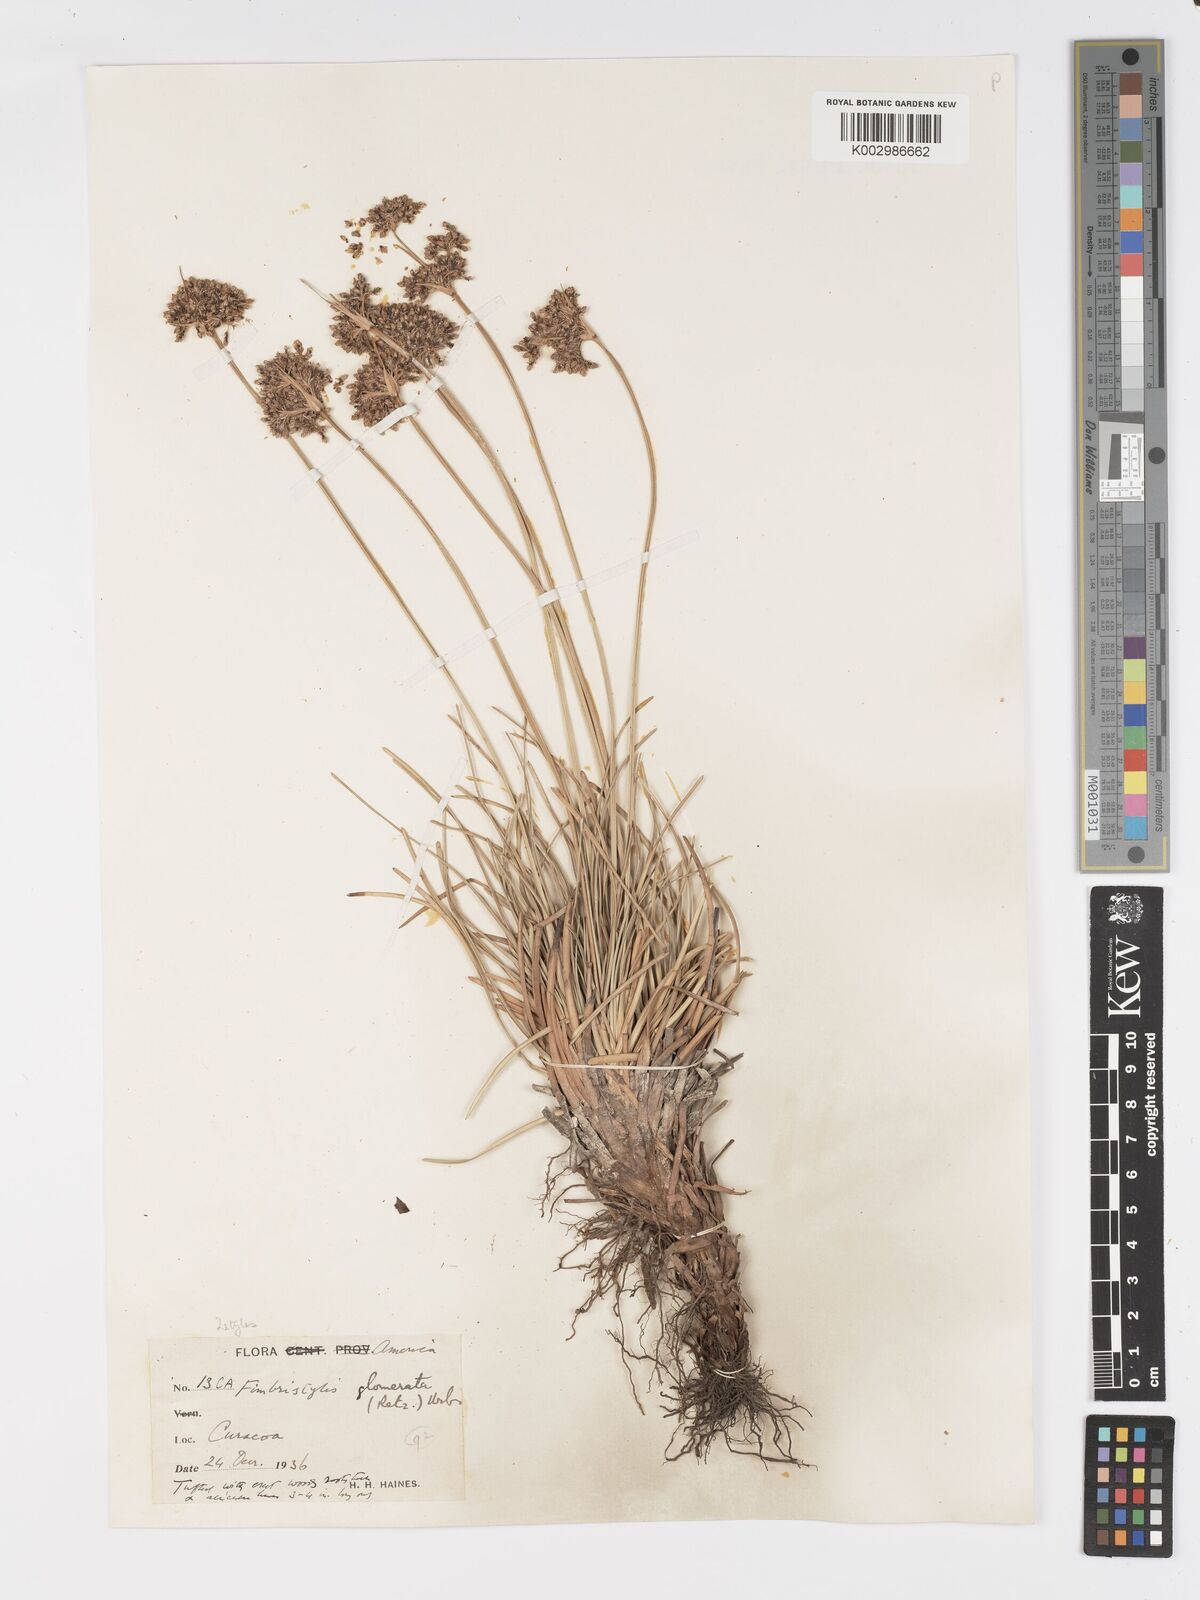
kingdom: Plantae
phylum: Tracheophyta
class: Liliopsida
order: Poales
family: Cyperaceae
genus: Fimbristylis
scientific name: Fimbristylis cymosa
